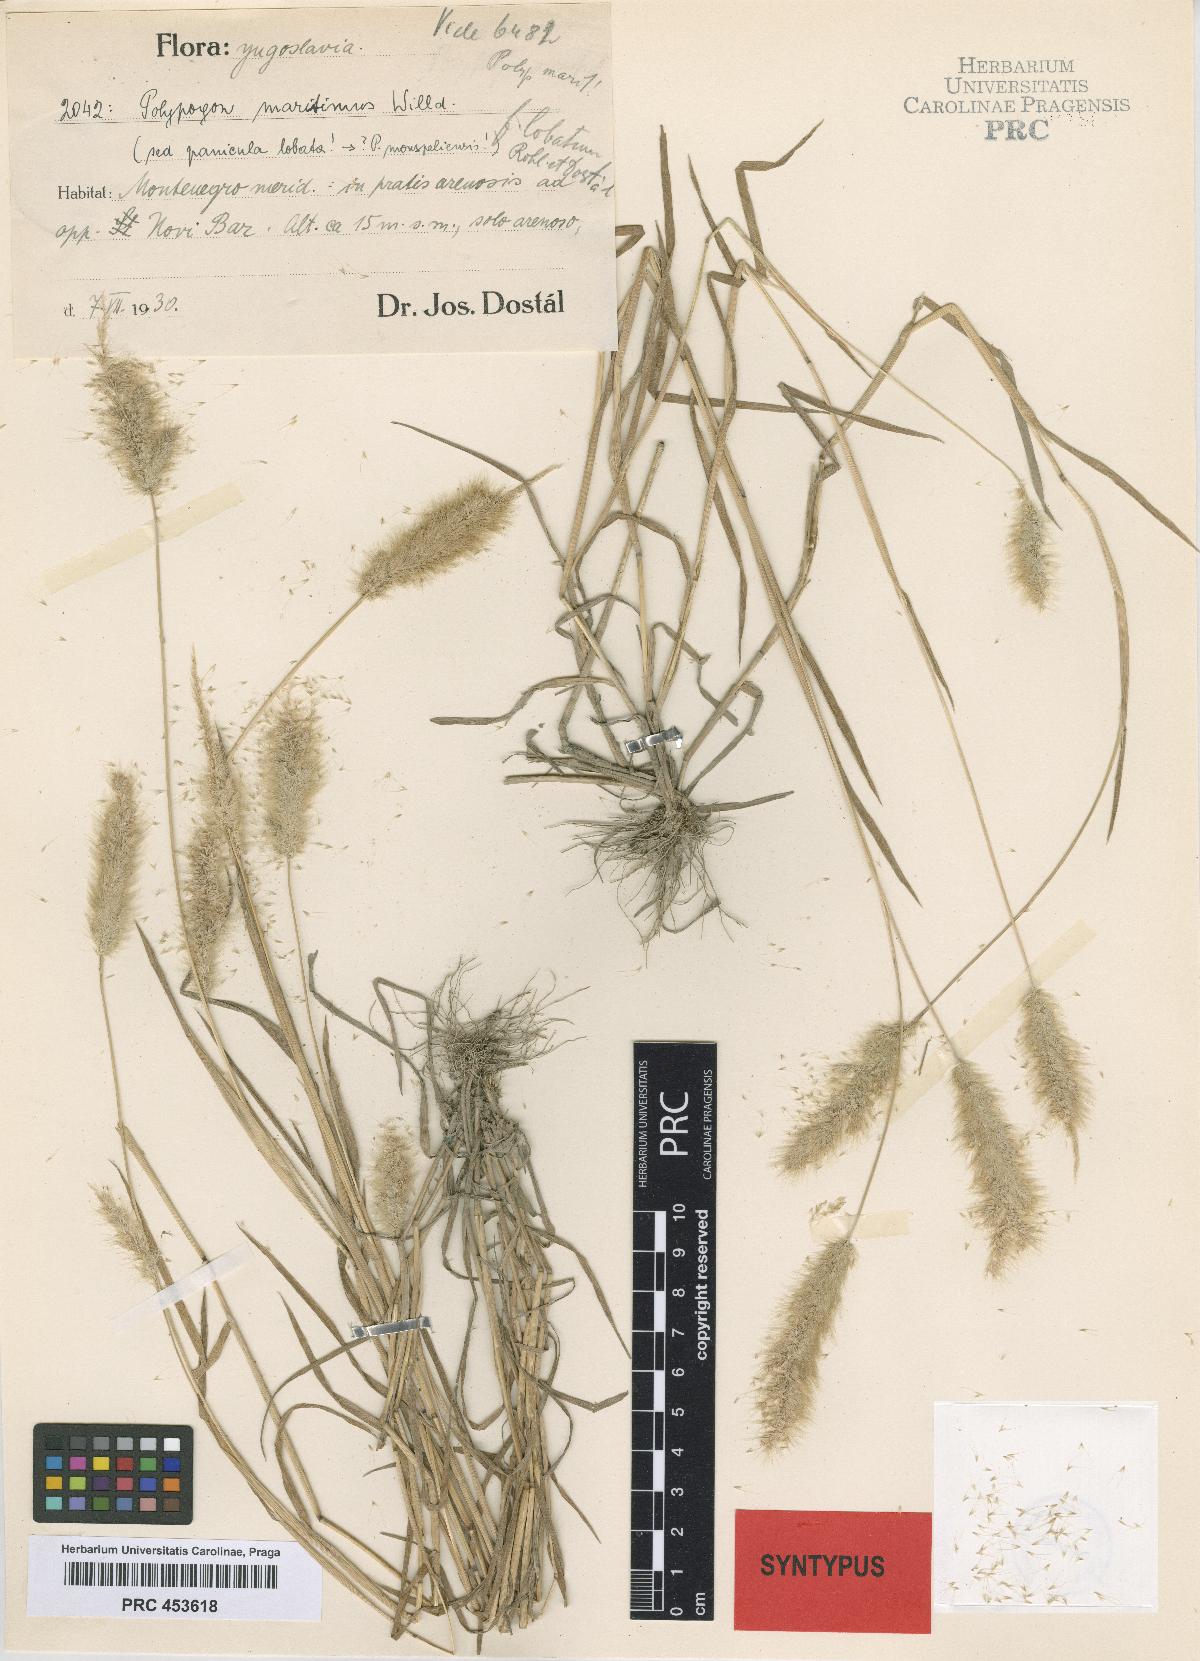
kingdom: Plantae
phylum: Tracheophyta
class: Liliopsida
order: Poales
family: Poaceae
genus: Polypogon
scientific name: Polypogon maritimus
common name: Mediterranean rabbitsfoot grass
